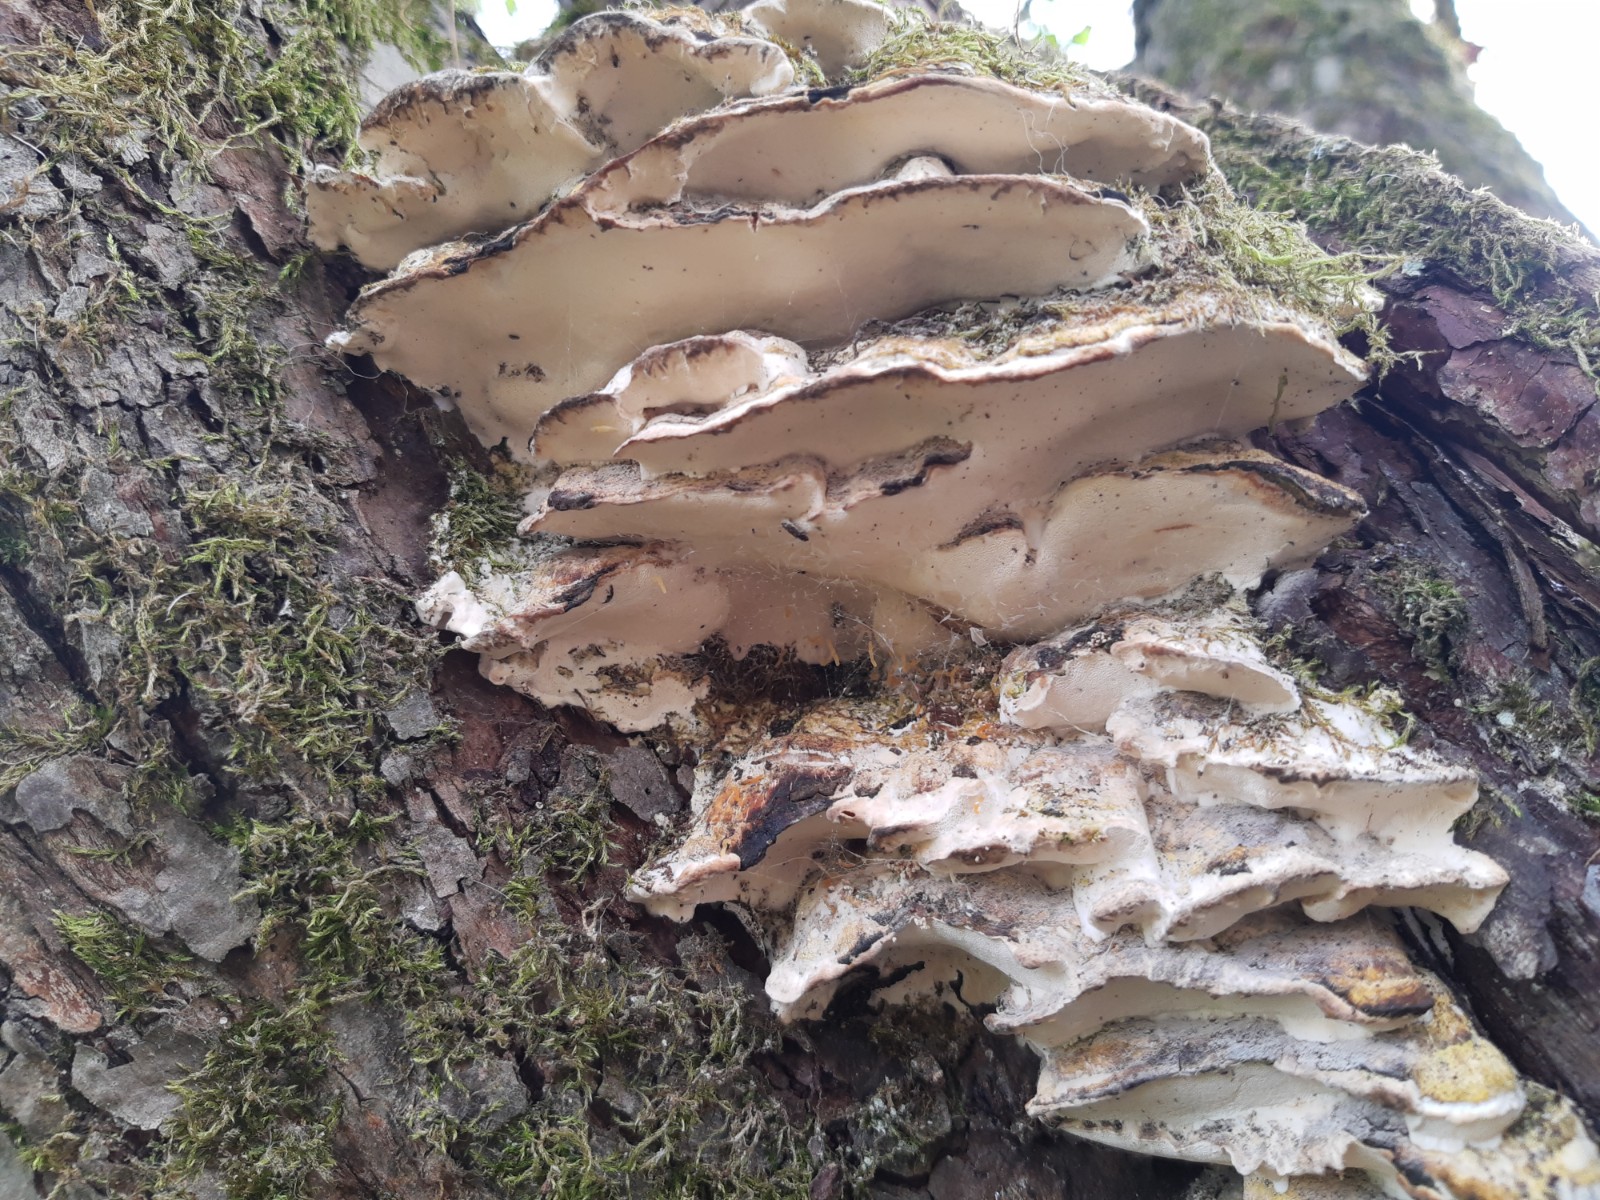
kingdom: Fungi
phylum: Basidiomycota
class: Agaricomycetes
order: Hymenochaetales
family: Oxyporaceae
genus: Oxyporus
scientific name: Oxyporus populinus
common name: sammenvokset trylleporesvamp
